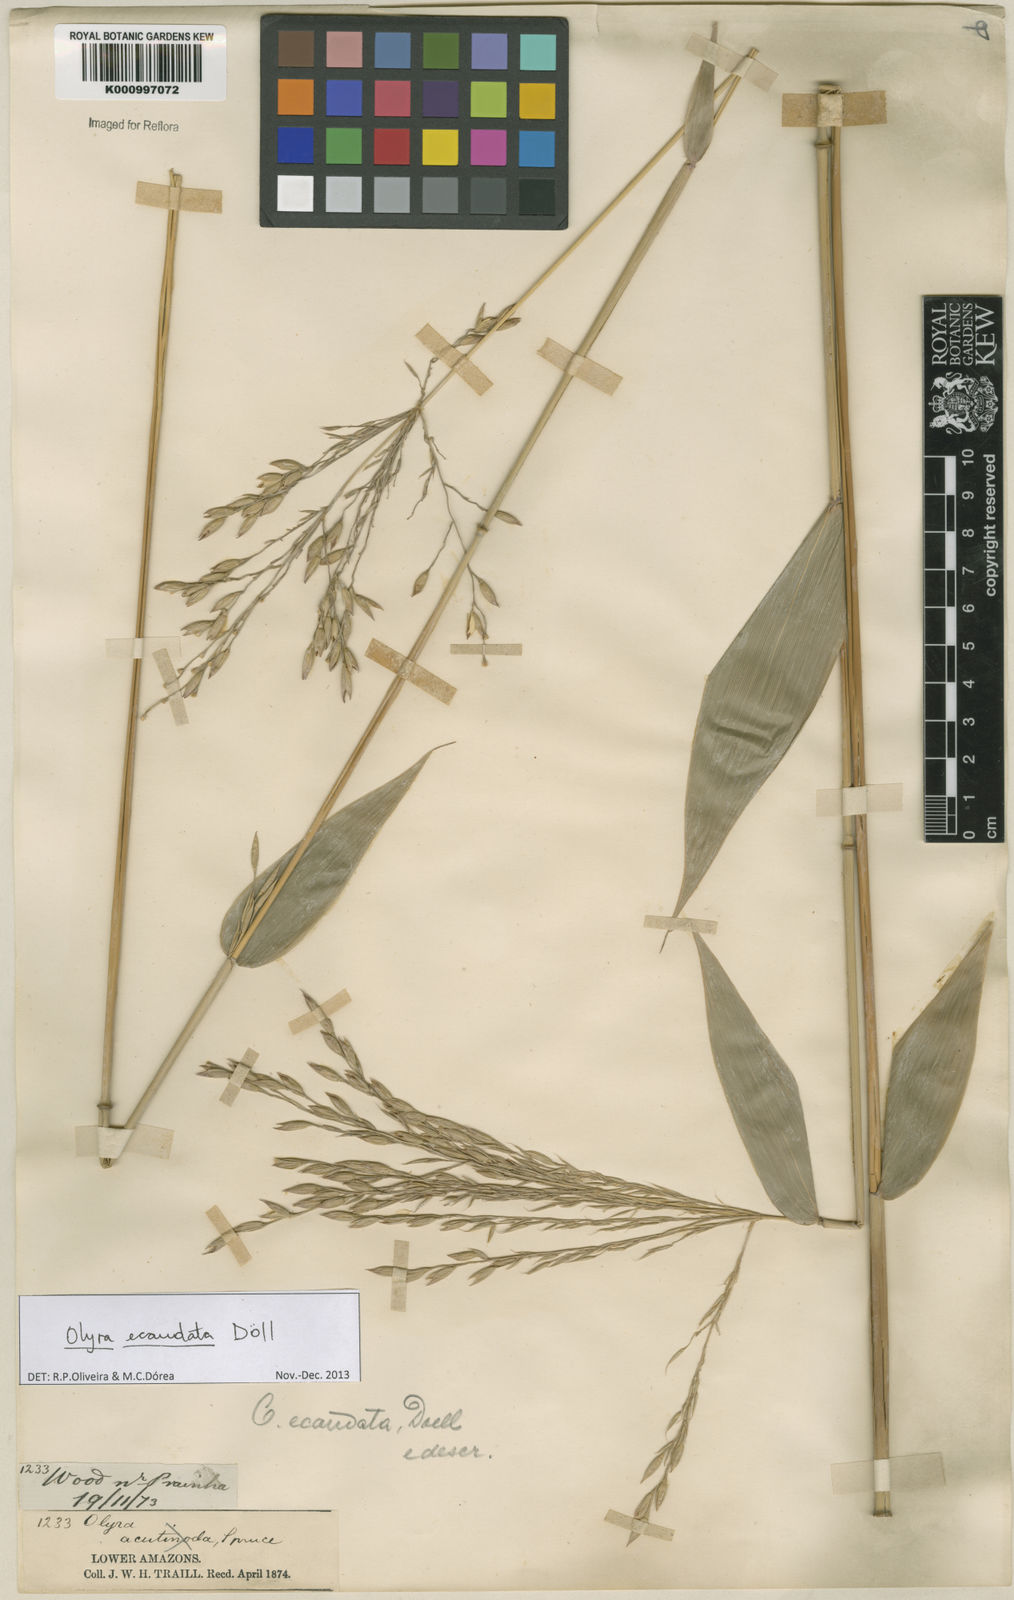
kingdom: Plantae
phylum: Tracheophyta
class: Liliopsida
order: Poales
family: Poaceae
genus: Olyra
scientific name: Olyra
